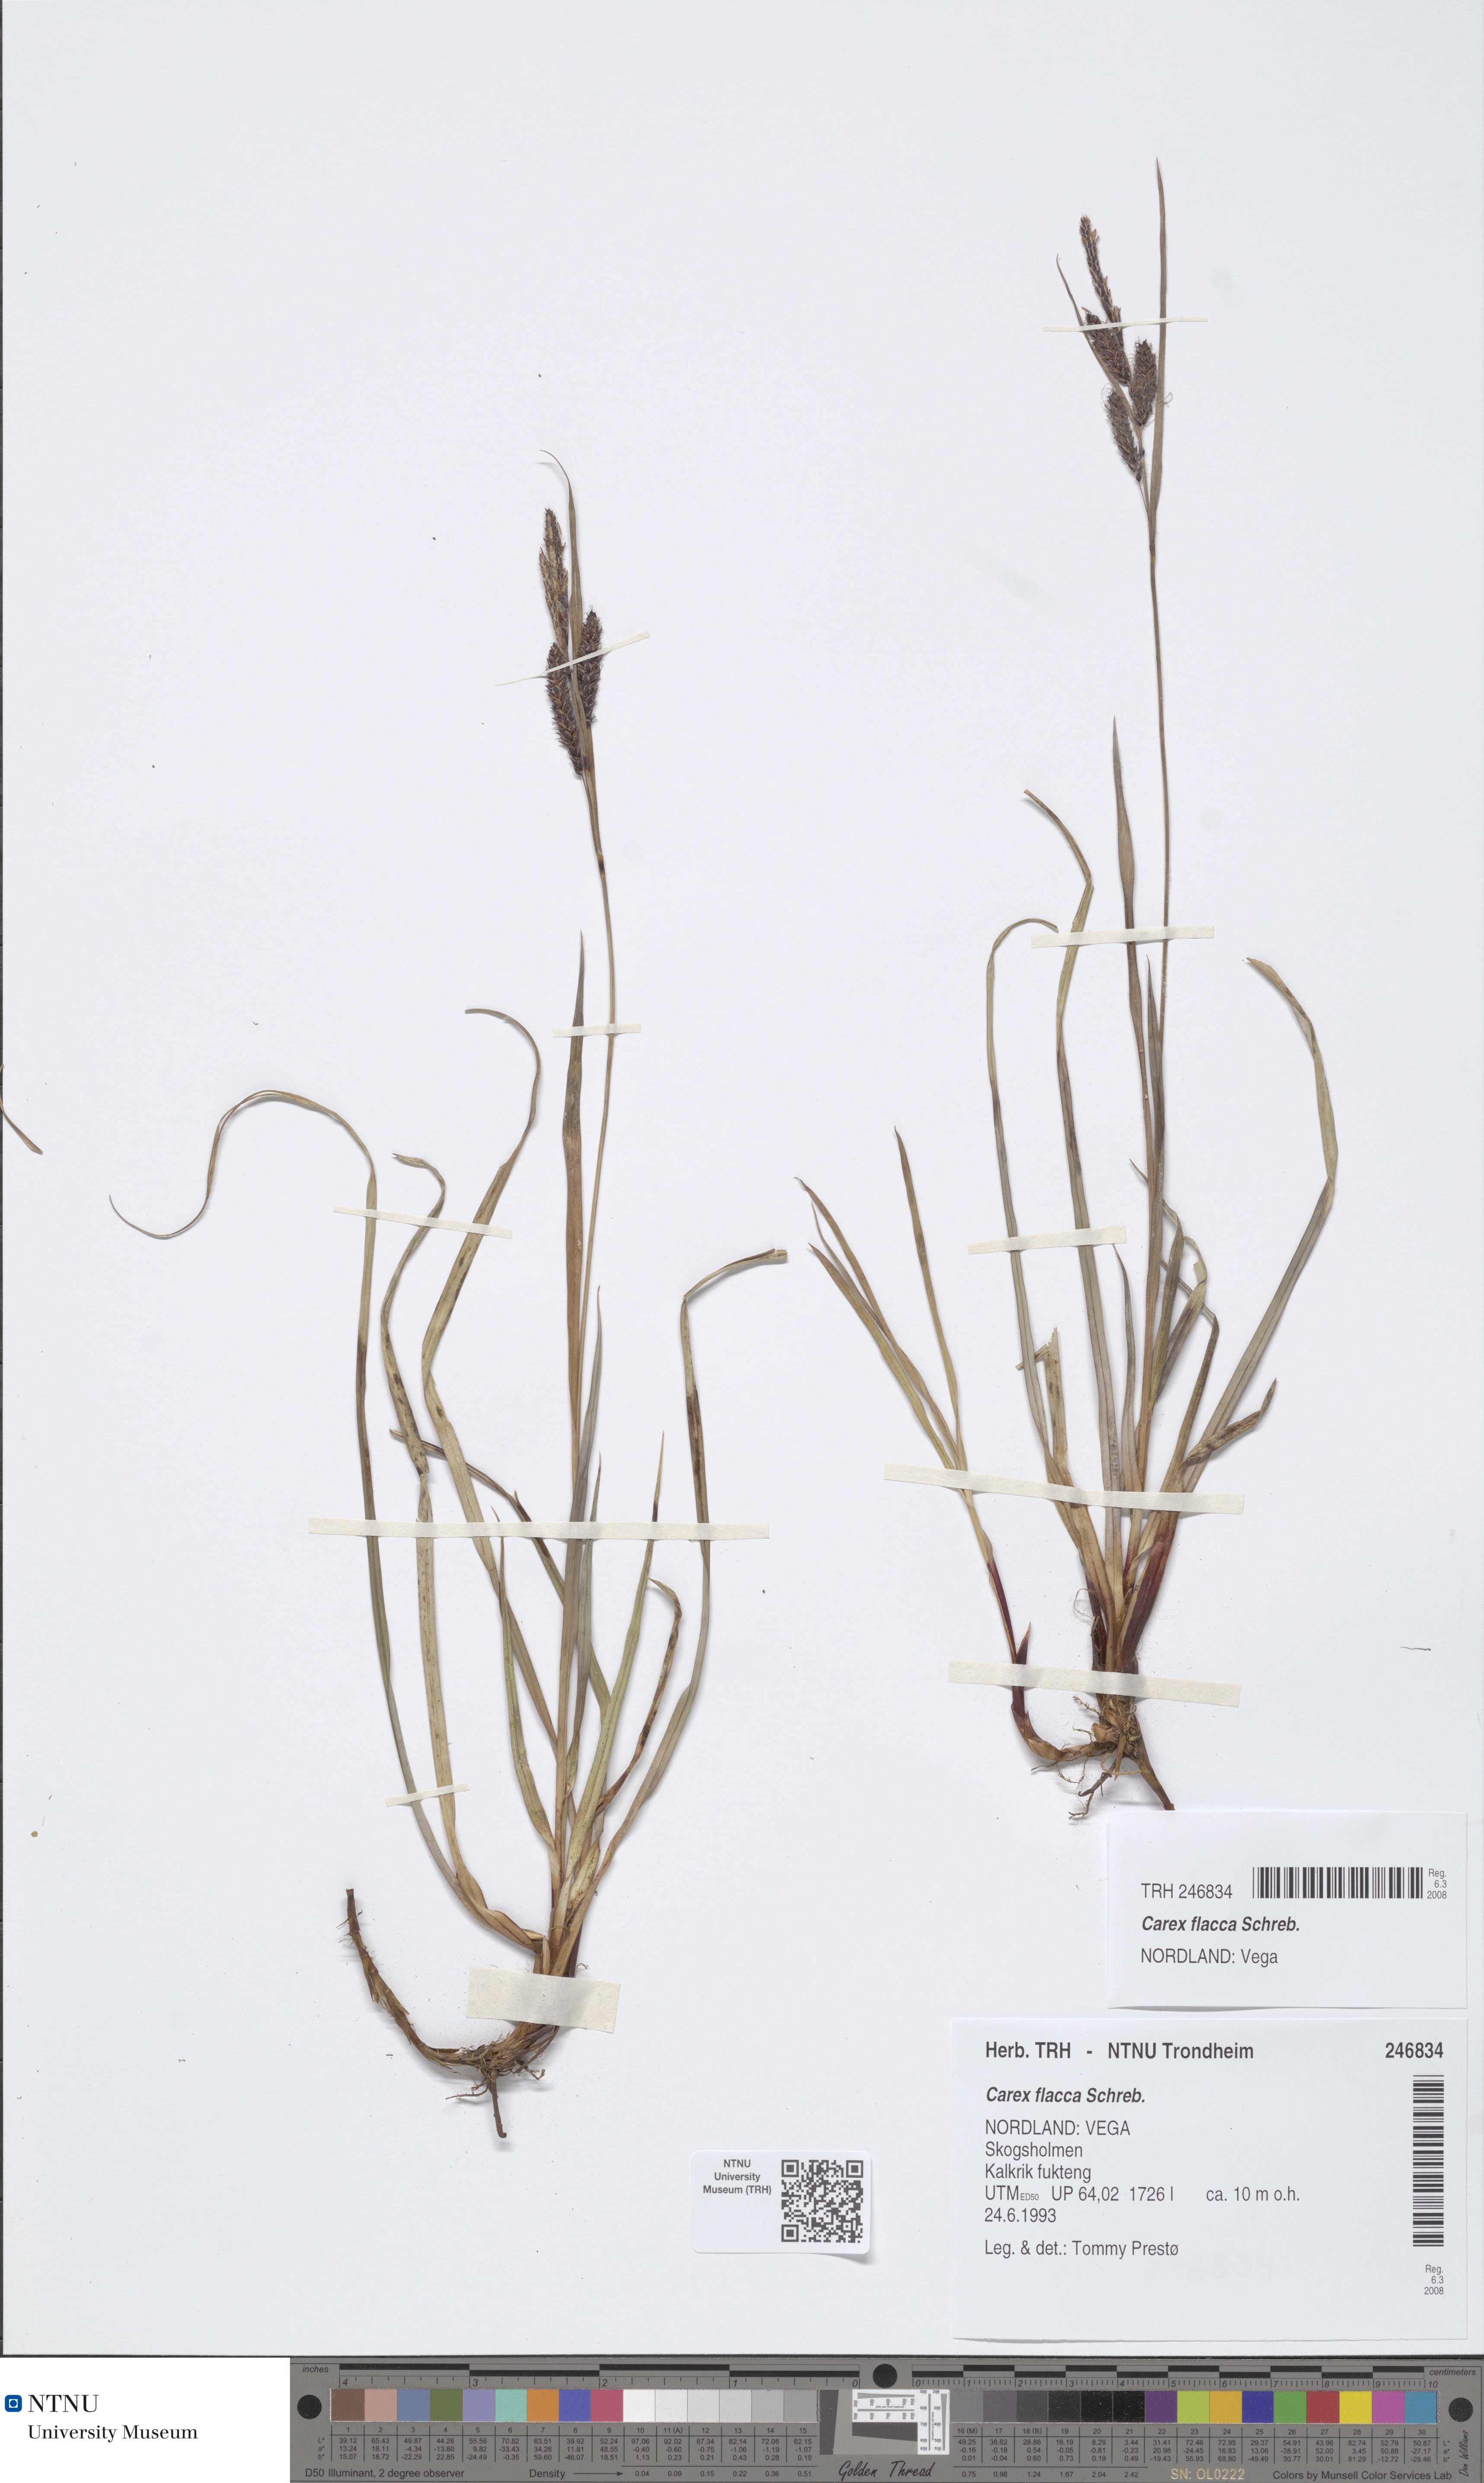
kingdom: Plantae
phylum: Tracheophyta
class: Liliopsida
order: Poales
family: Cyperaceae
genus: Carex
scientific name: Carex flacca
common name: Glaucous sedge
